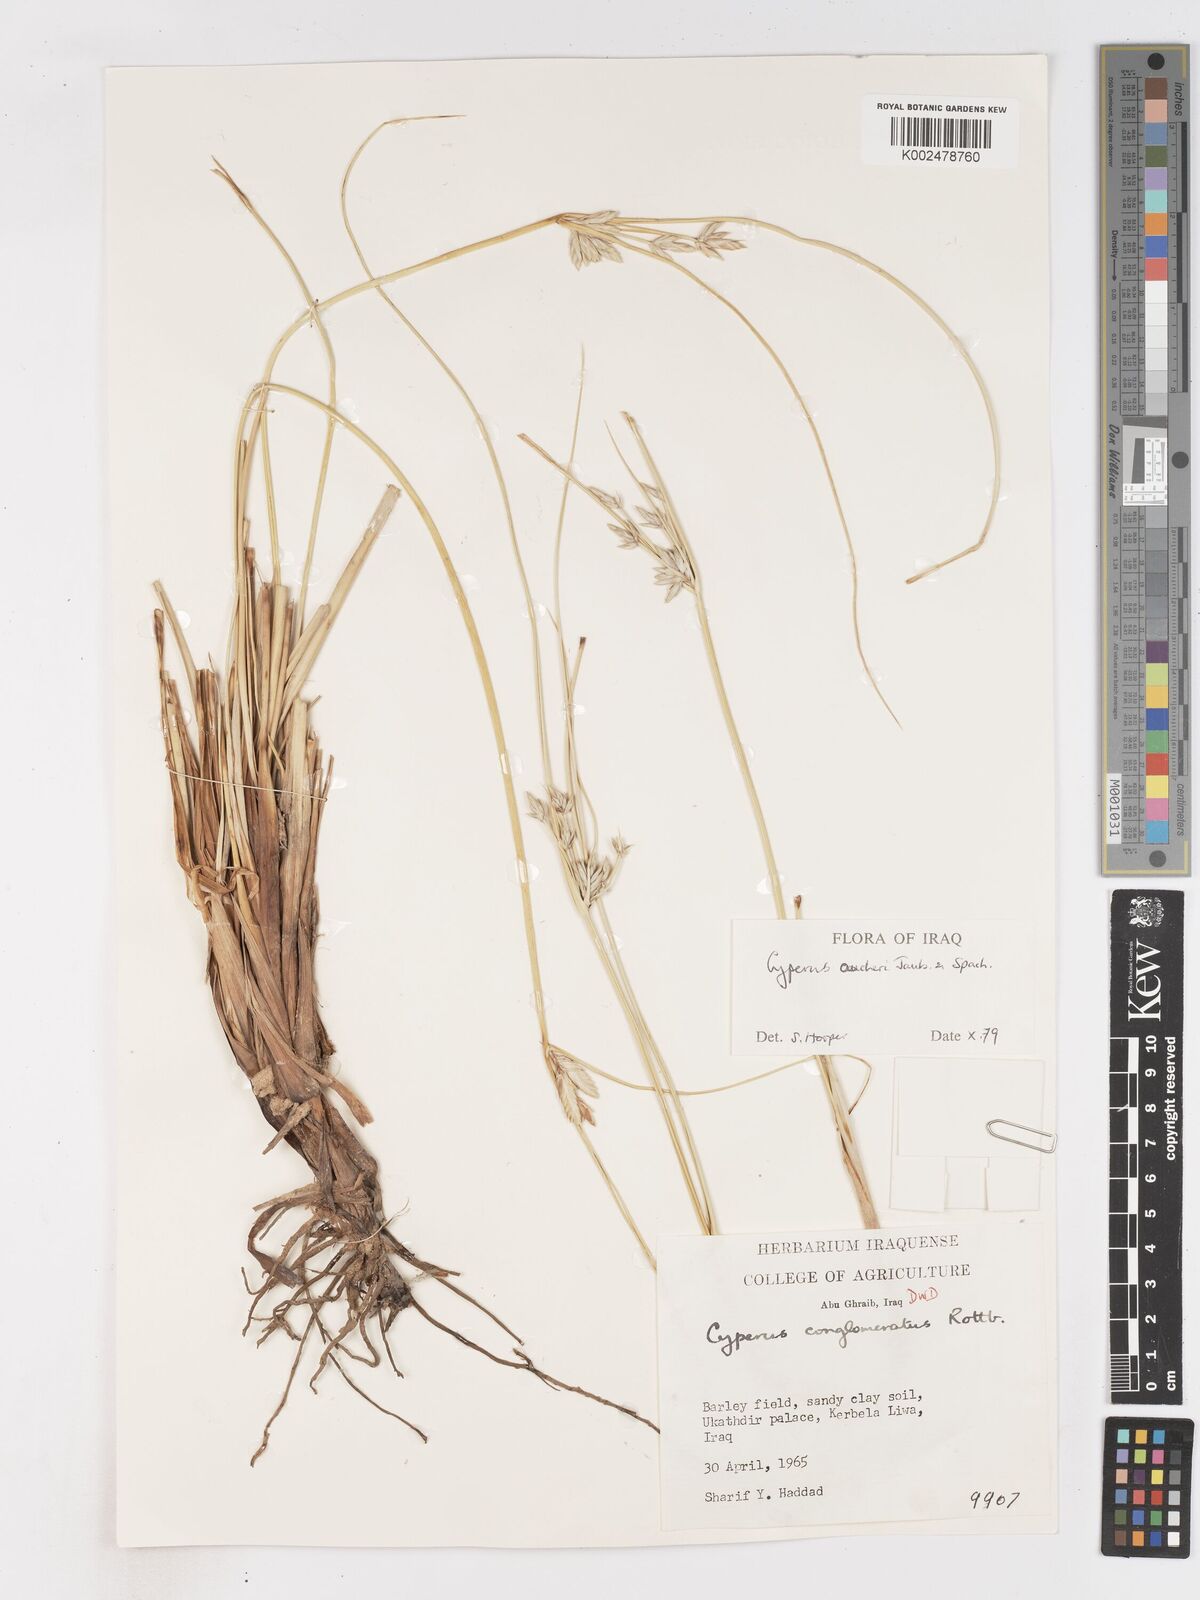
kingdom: Plantae
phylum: Tracheophyta
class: Liliopsida
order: Poales
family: Cyperaceae
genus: Cyperus
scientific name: Cyperus aucheri
